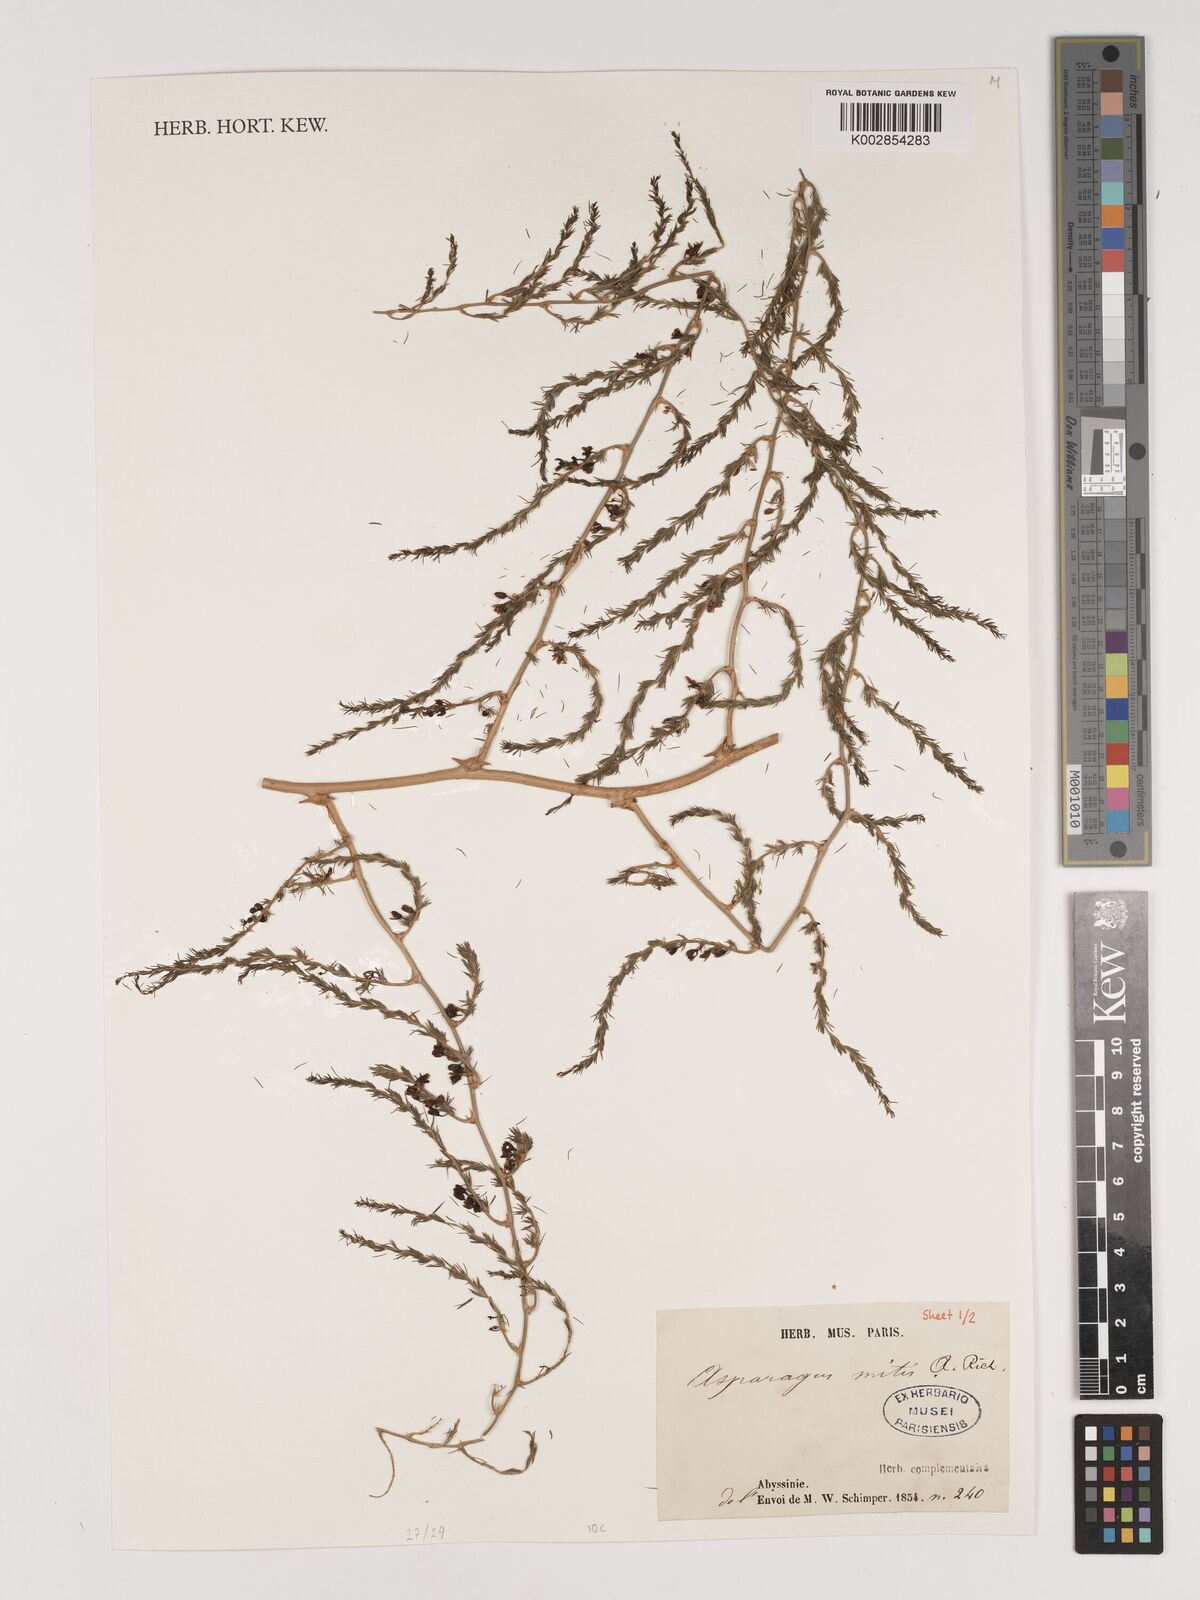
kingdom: Plantae
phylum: Tracheophyta
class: Liliopsida
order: Asparagales
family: Asparagaceae
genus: Asparagus
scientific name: Asparagus africanus
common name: Asparagus-fern
